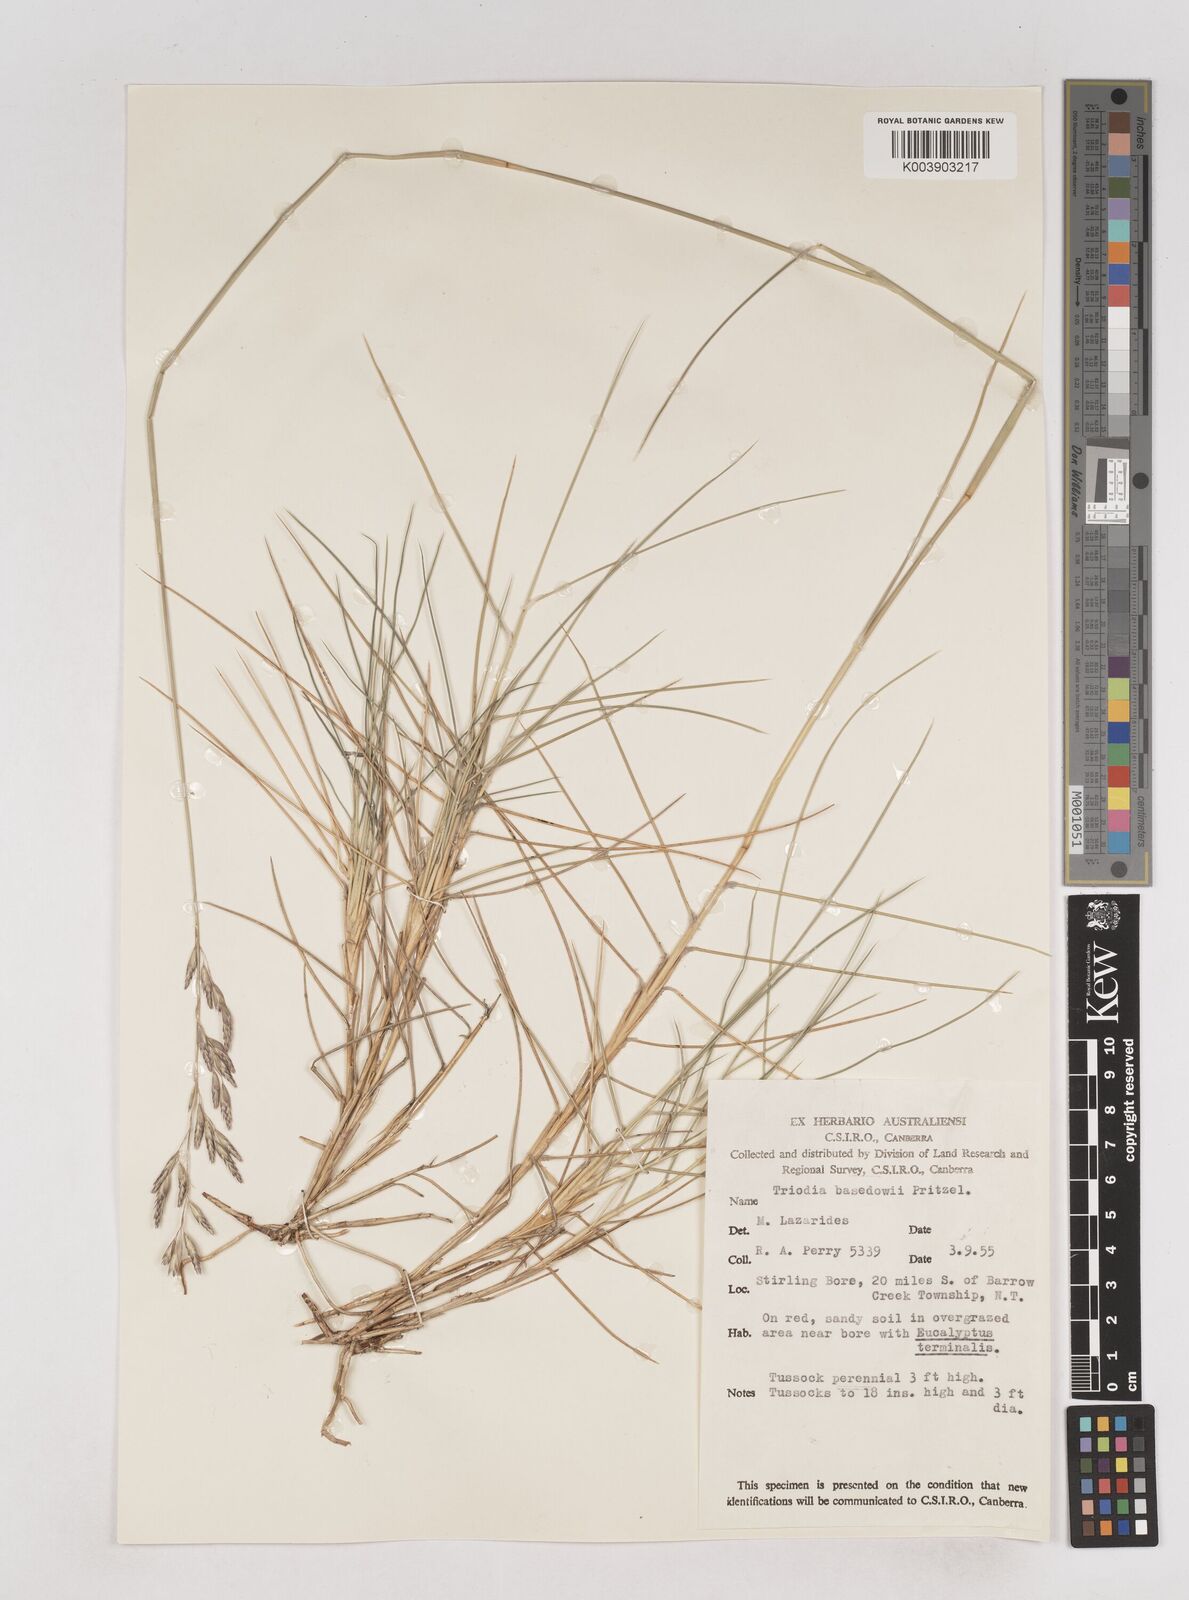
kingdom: Plantae
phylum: Tracheophyta
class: Liliopsida
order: Poales
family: Poaceae
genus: Triodia
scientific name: Triodia basedowii
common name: Hard spinifex
